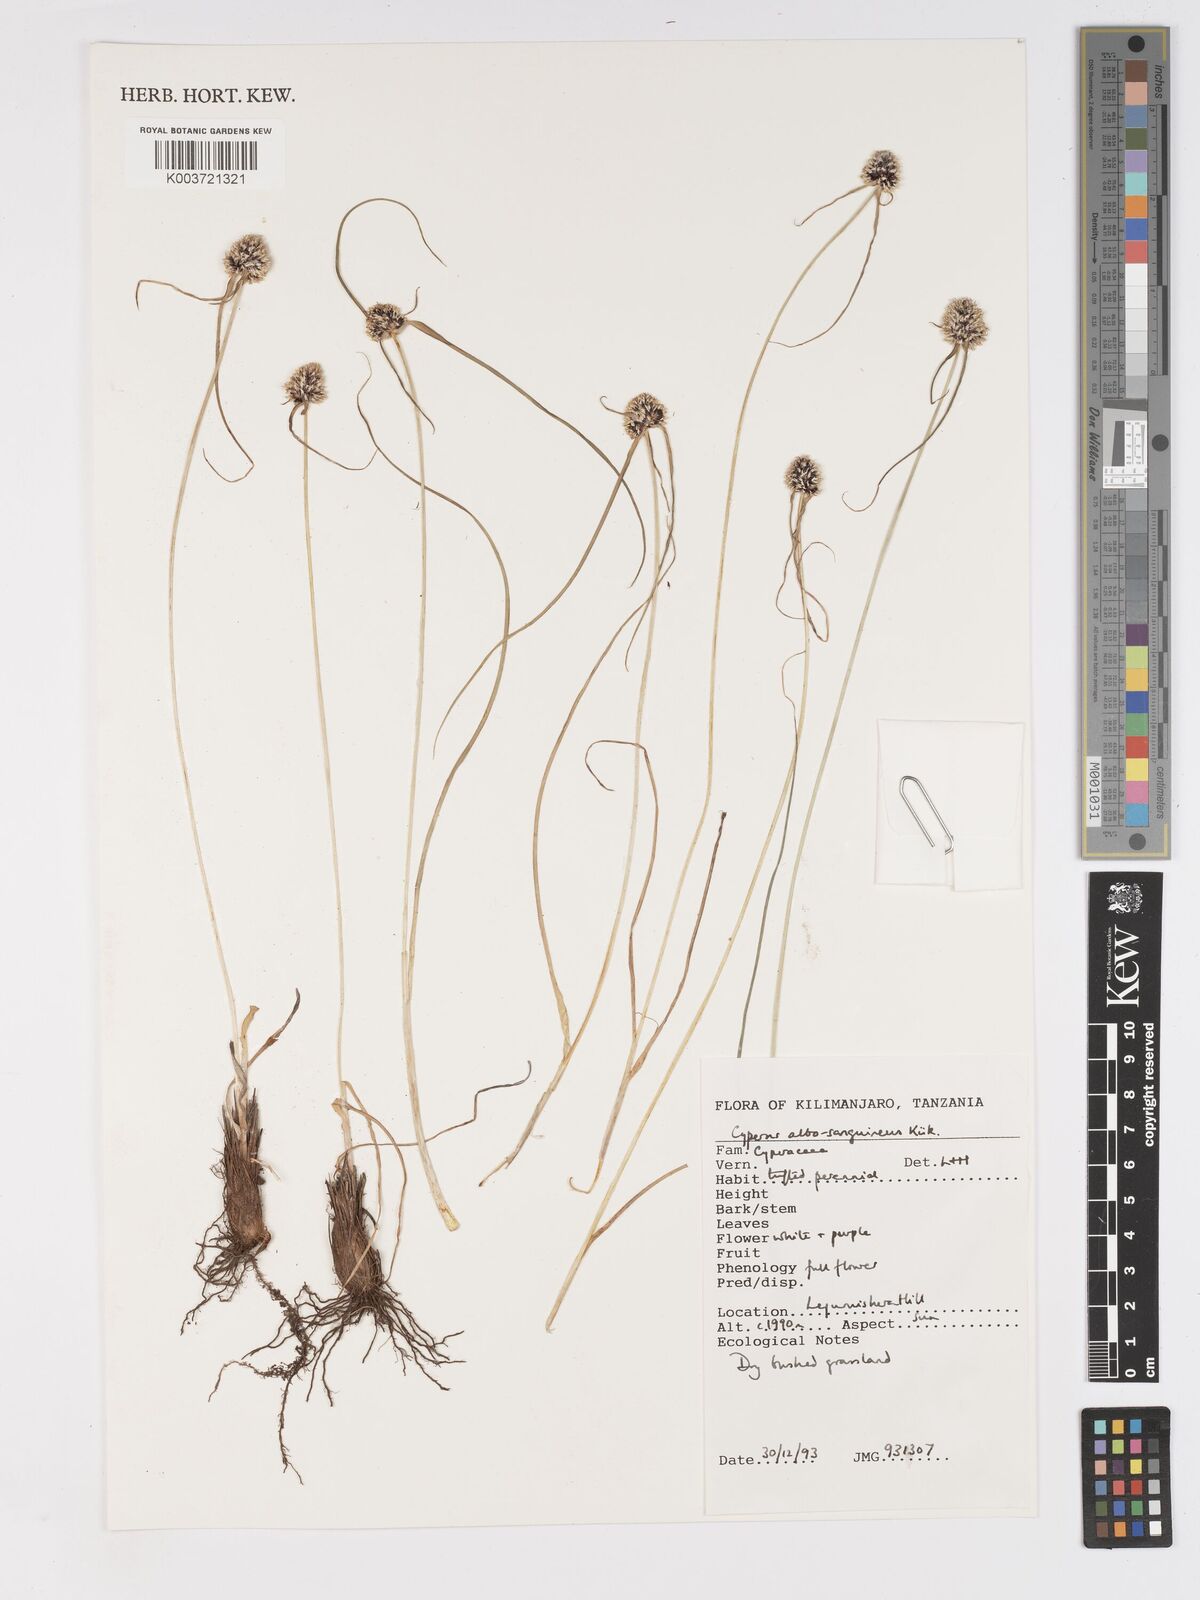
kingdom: Plantae
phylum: Tracheophyta
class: Liliopsida
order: Poales
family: Cyperaceae
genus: Cyperus
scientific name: Cyperus albosanguineus
